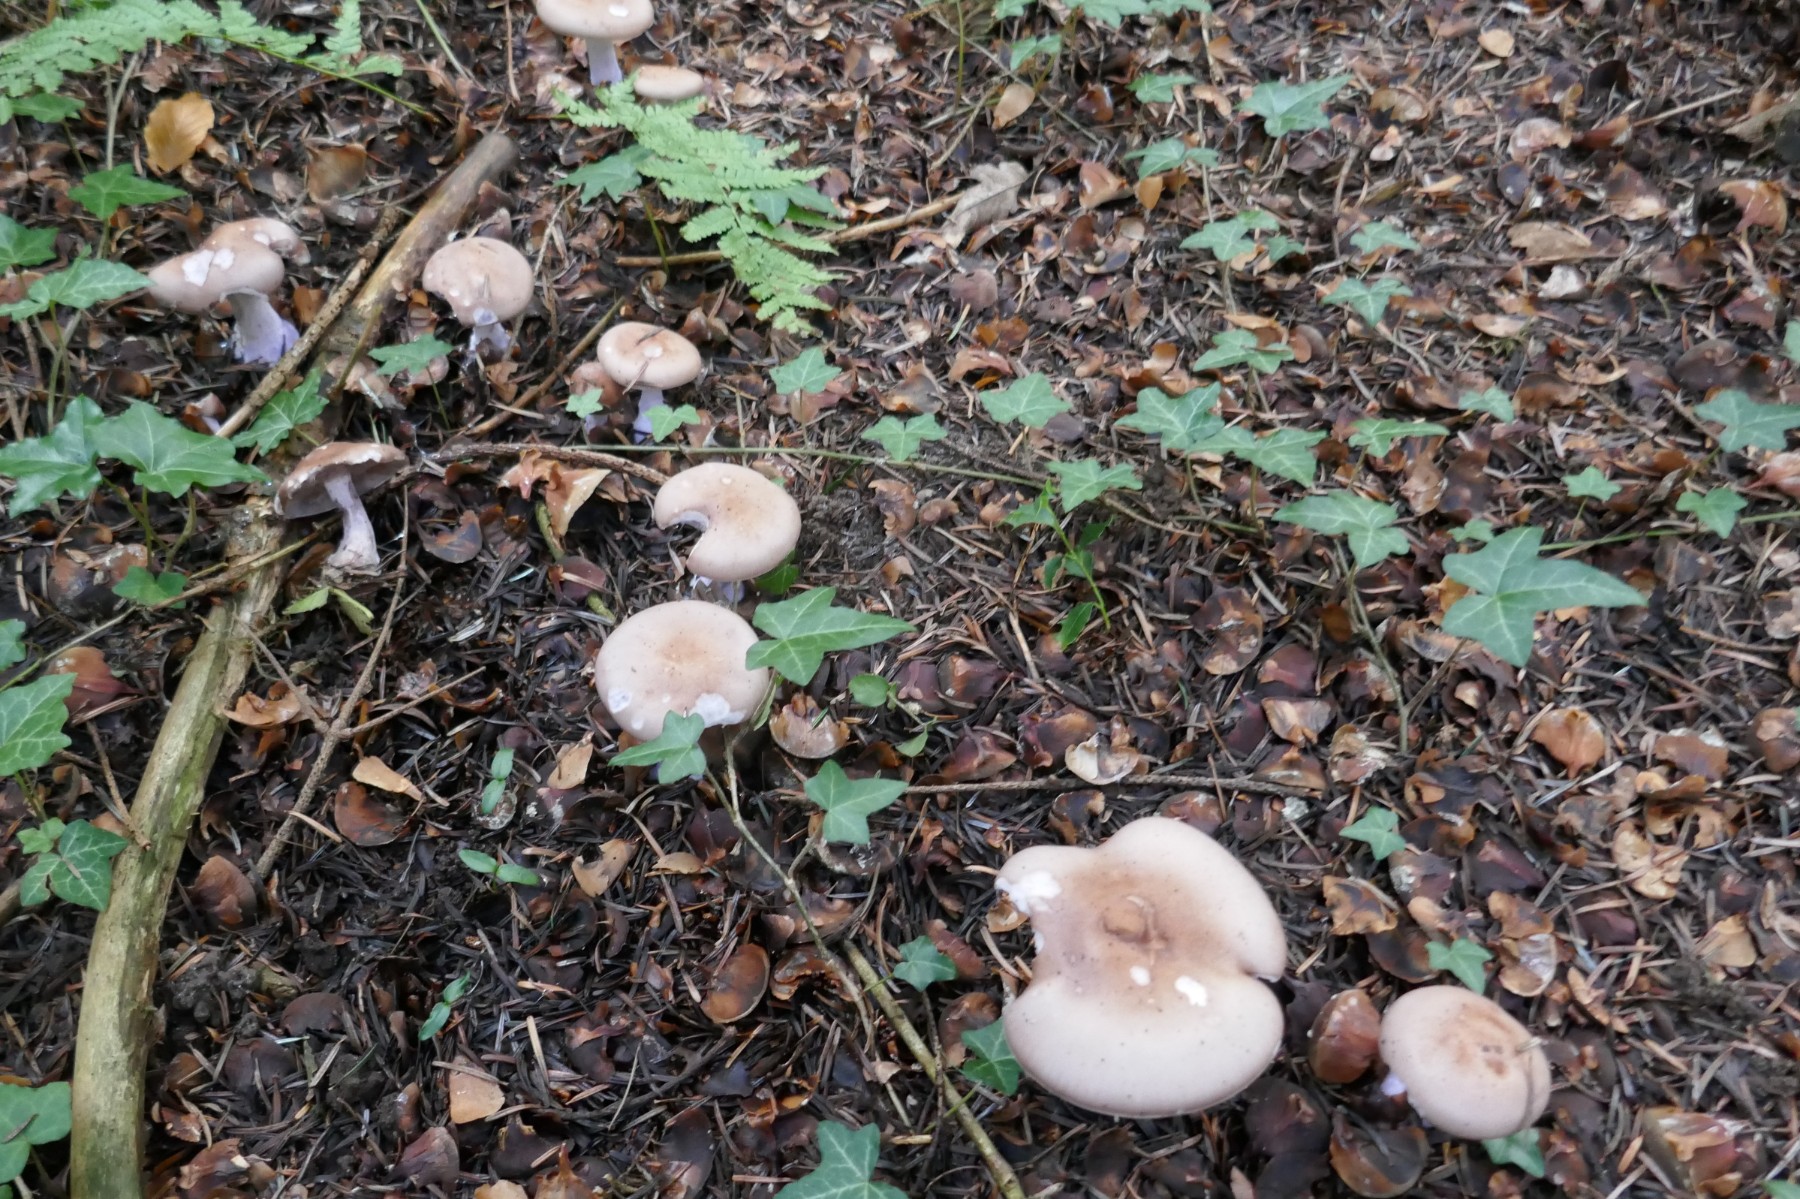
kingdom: Fungi
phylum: Basidiomycota
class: Agaricomycetes
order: Agaricales
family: Tricholomataceae
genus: Lepista
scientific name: Lepista nuda
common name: violet hekseringshat
